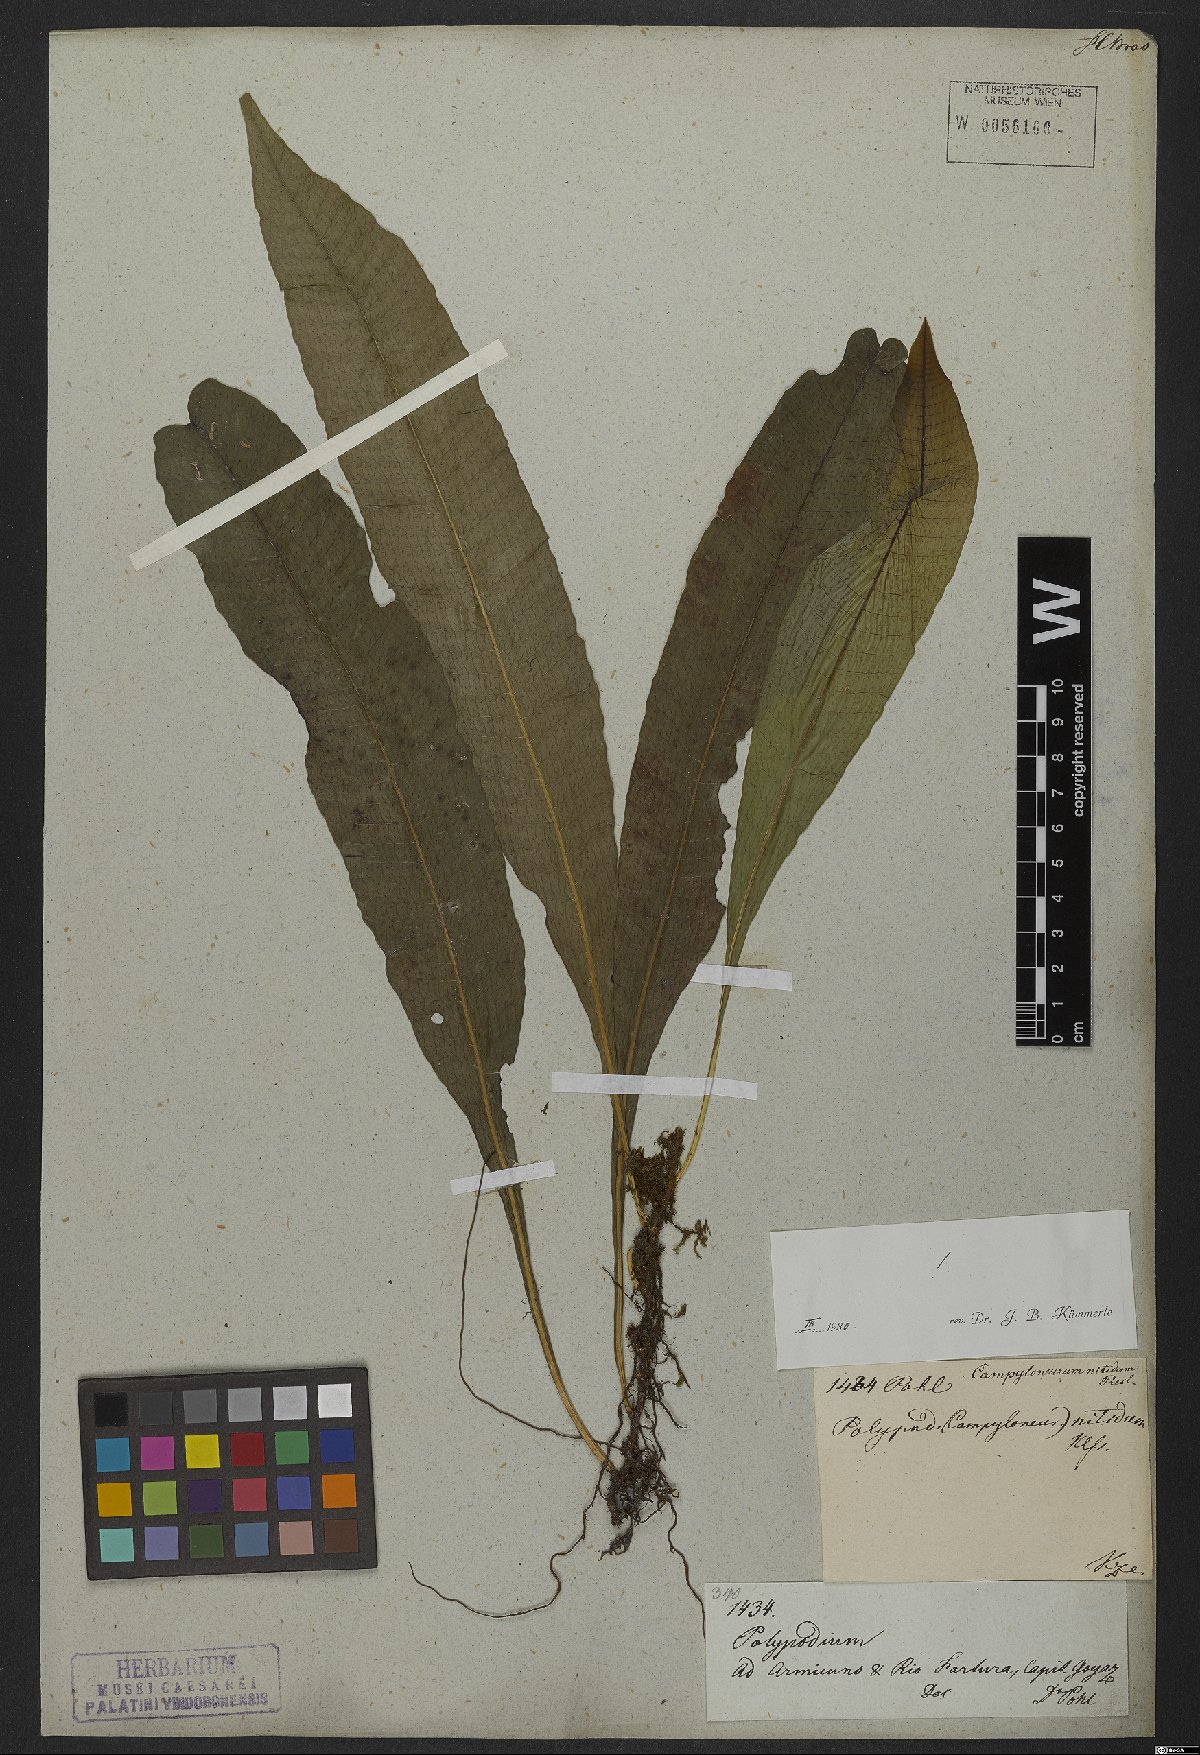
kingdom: Plantae
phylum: Tracheophyta
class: Polypodiopsida
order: Polypodiales
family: Polypodiaceae
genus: Campyloneurum
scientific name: Campyloneurum nitidum
